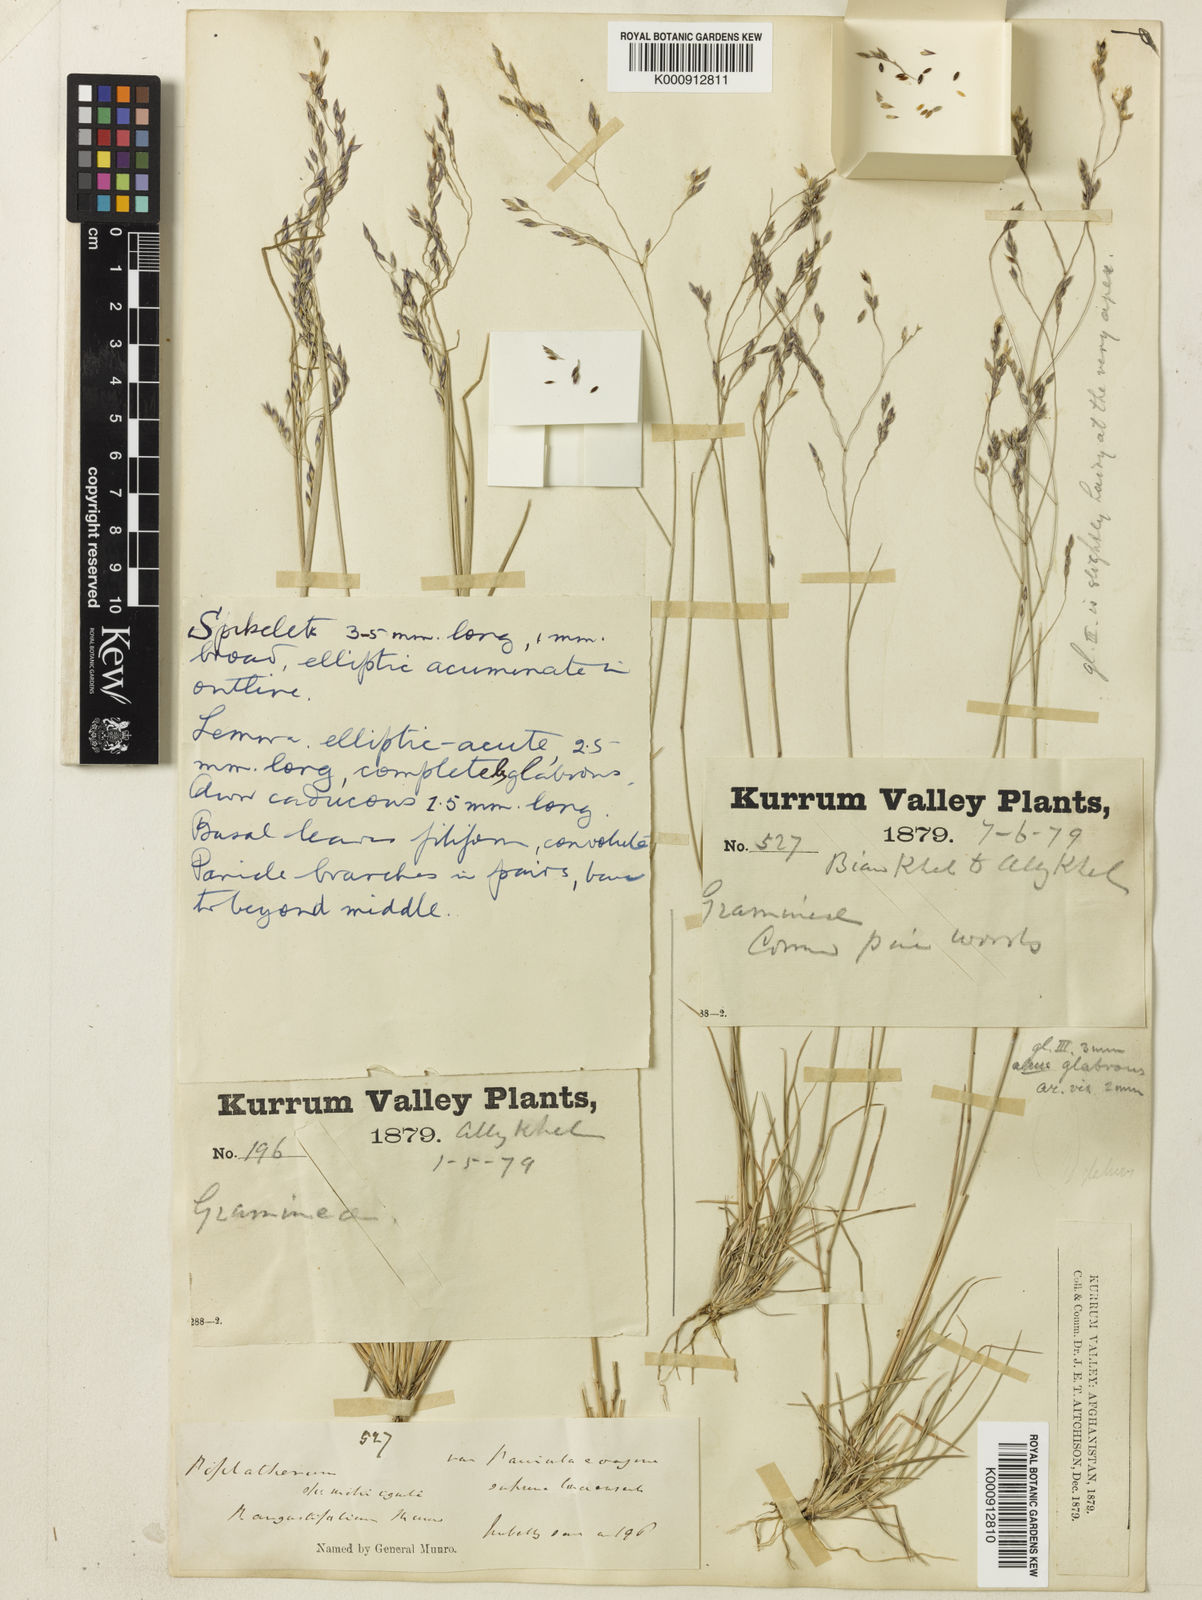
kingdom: Plantae
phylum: Tracheophyta
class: Liliopsida
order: Poales
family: Poaceae
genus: Piptatherum
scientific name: Piptatherum angustifolium
